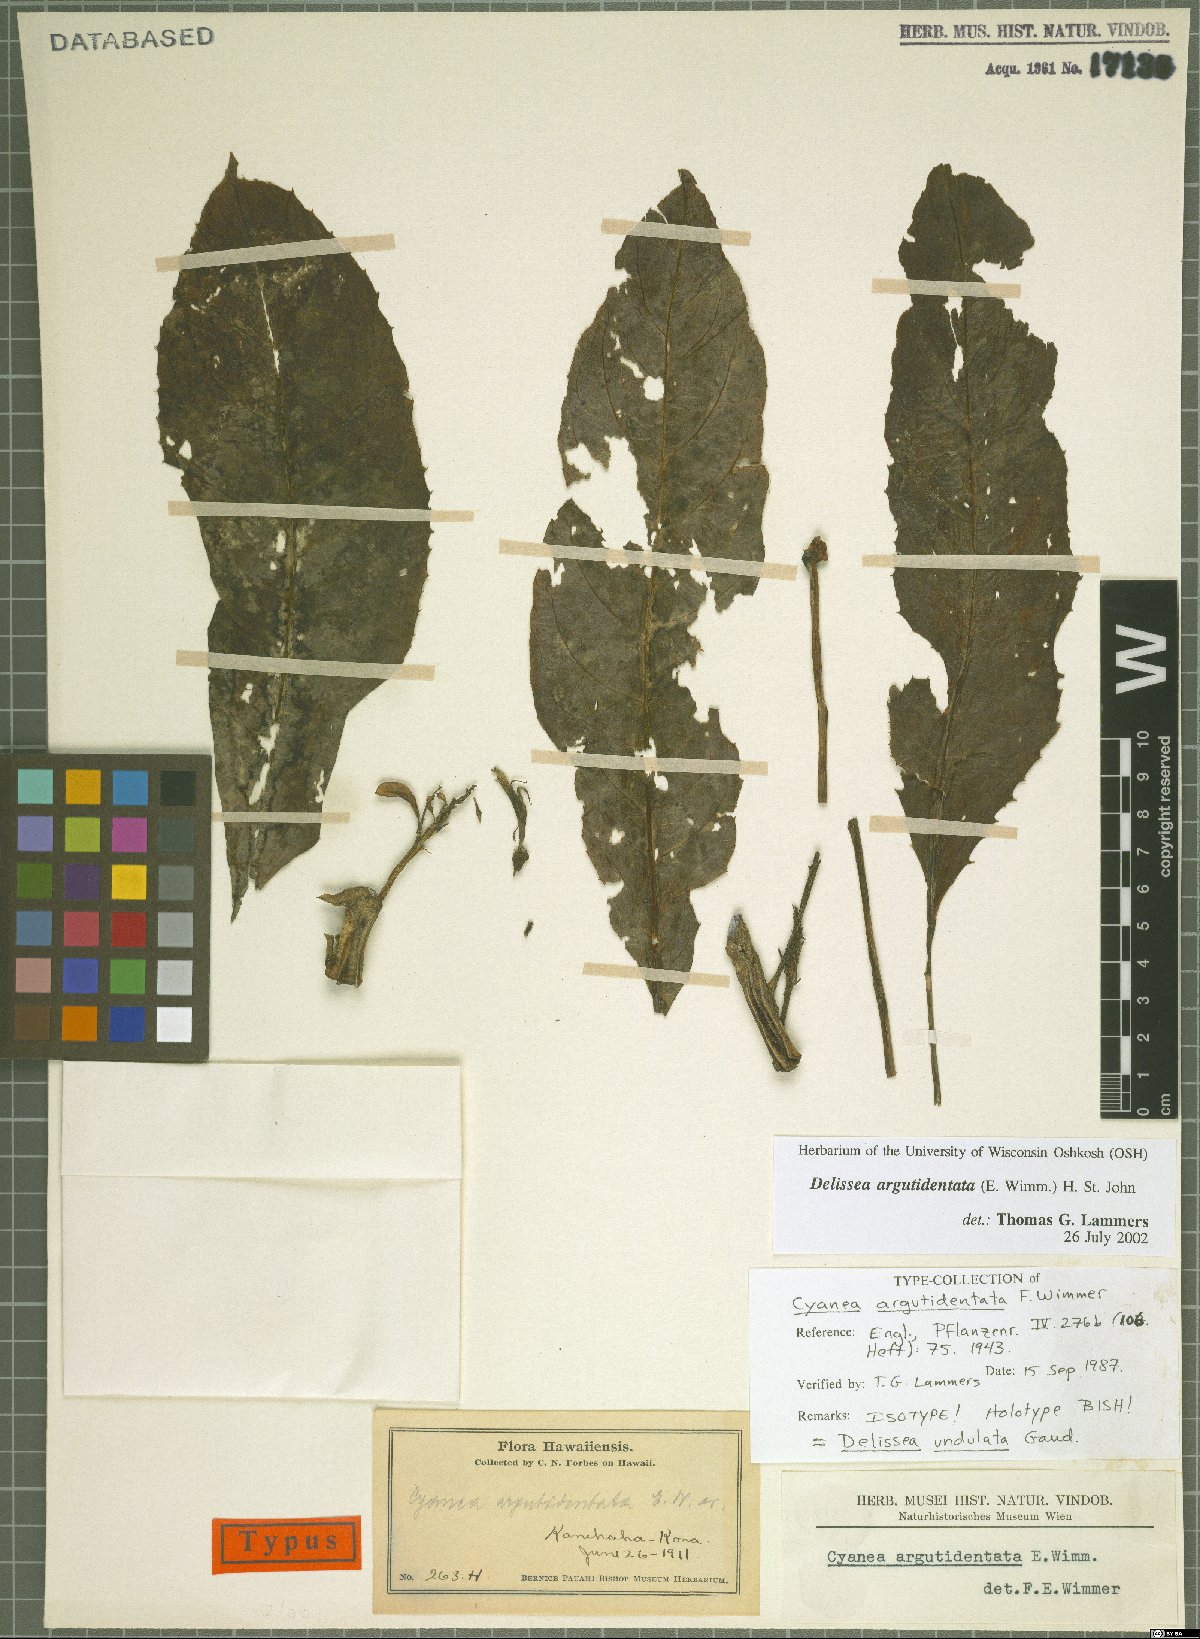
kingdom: Plantae
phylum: Tracheophyta
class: Magnoliopsida
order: Asterales
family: Campanulaceae
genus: Delissea
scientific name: Delissea argutidentata
